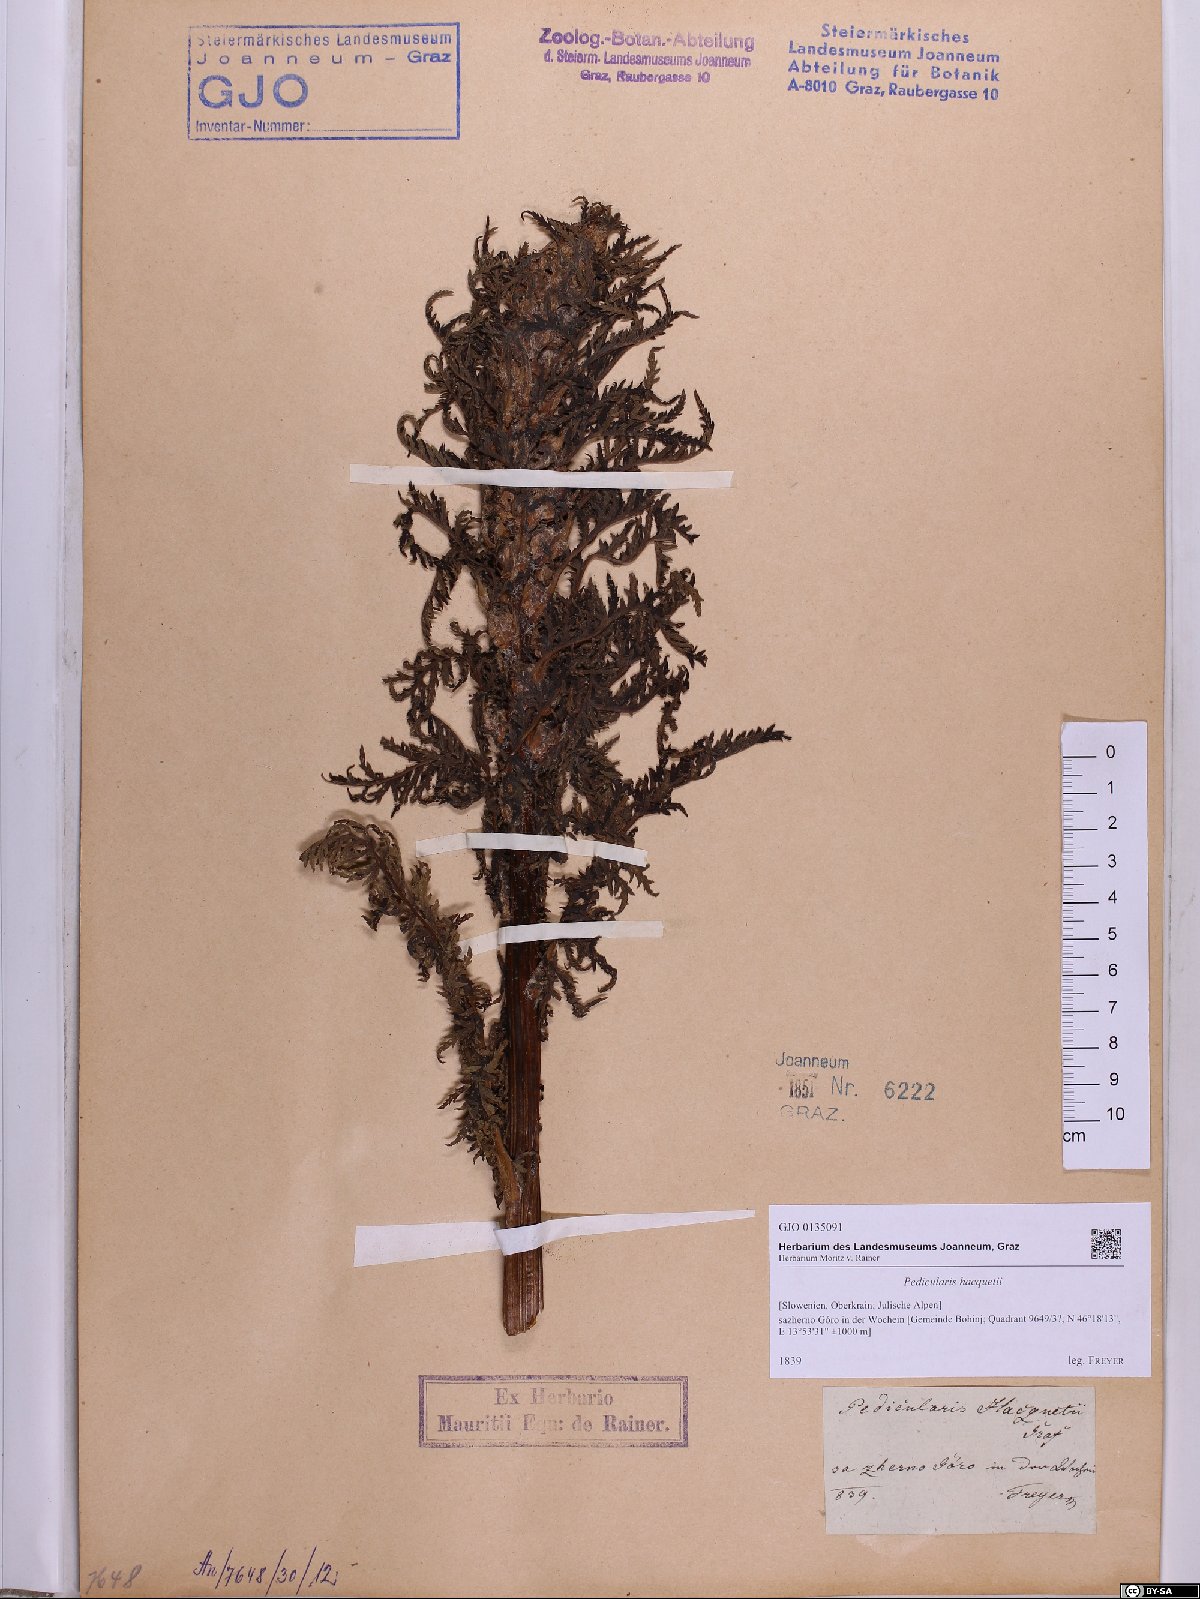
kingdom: Plantae
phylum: Tracheophyta
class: Magnoliopsida
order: Lamiales
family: Orobanchaceae
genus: Pedicularis
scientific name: Pedicularis hacquetii
